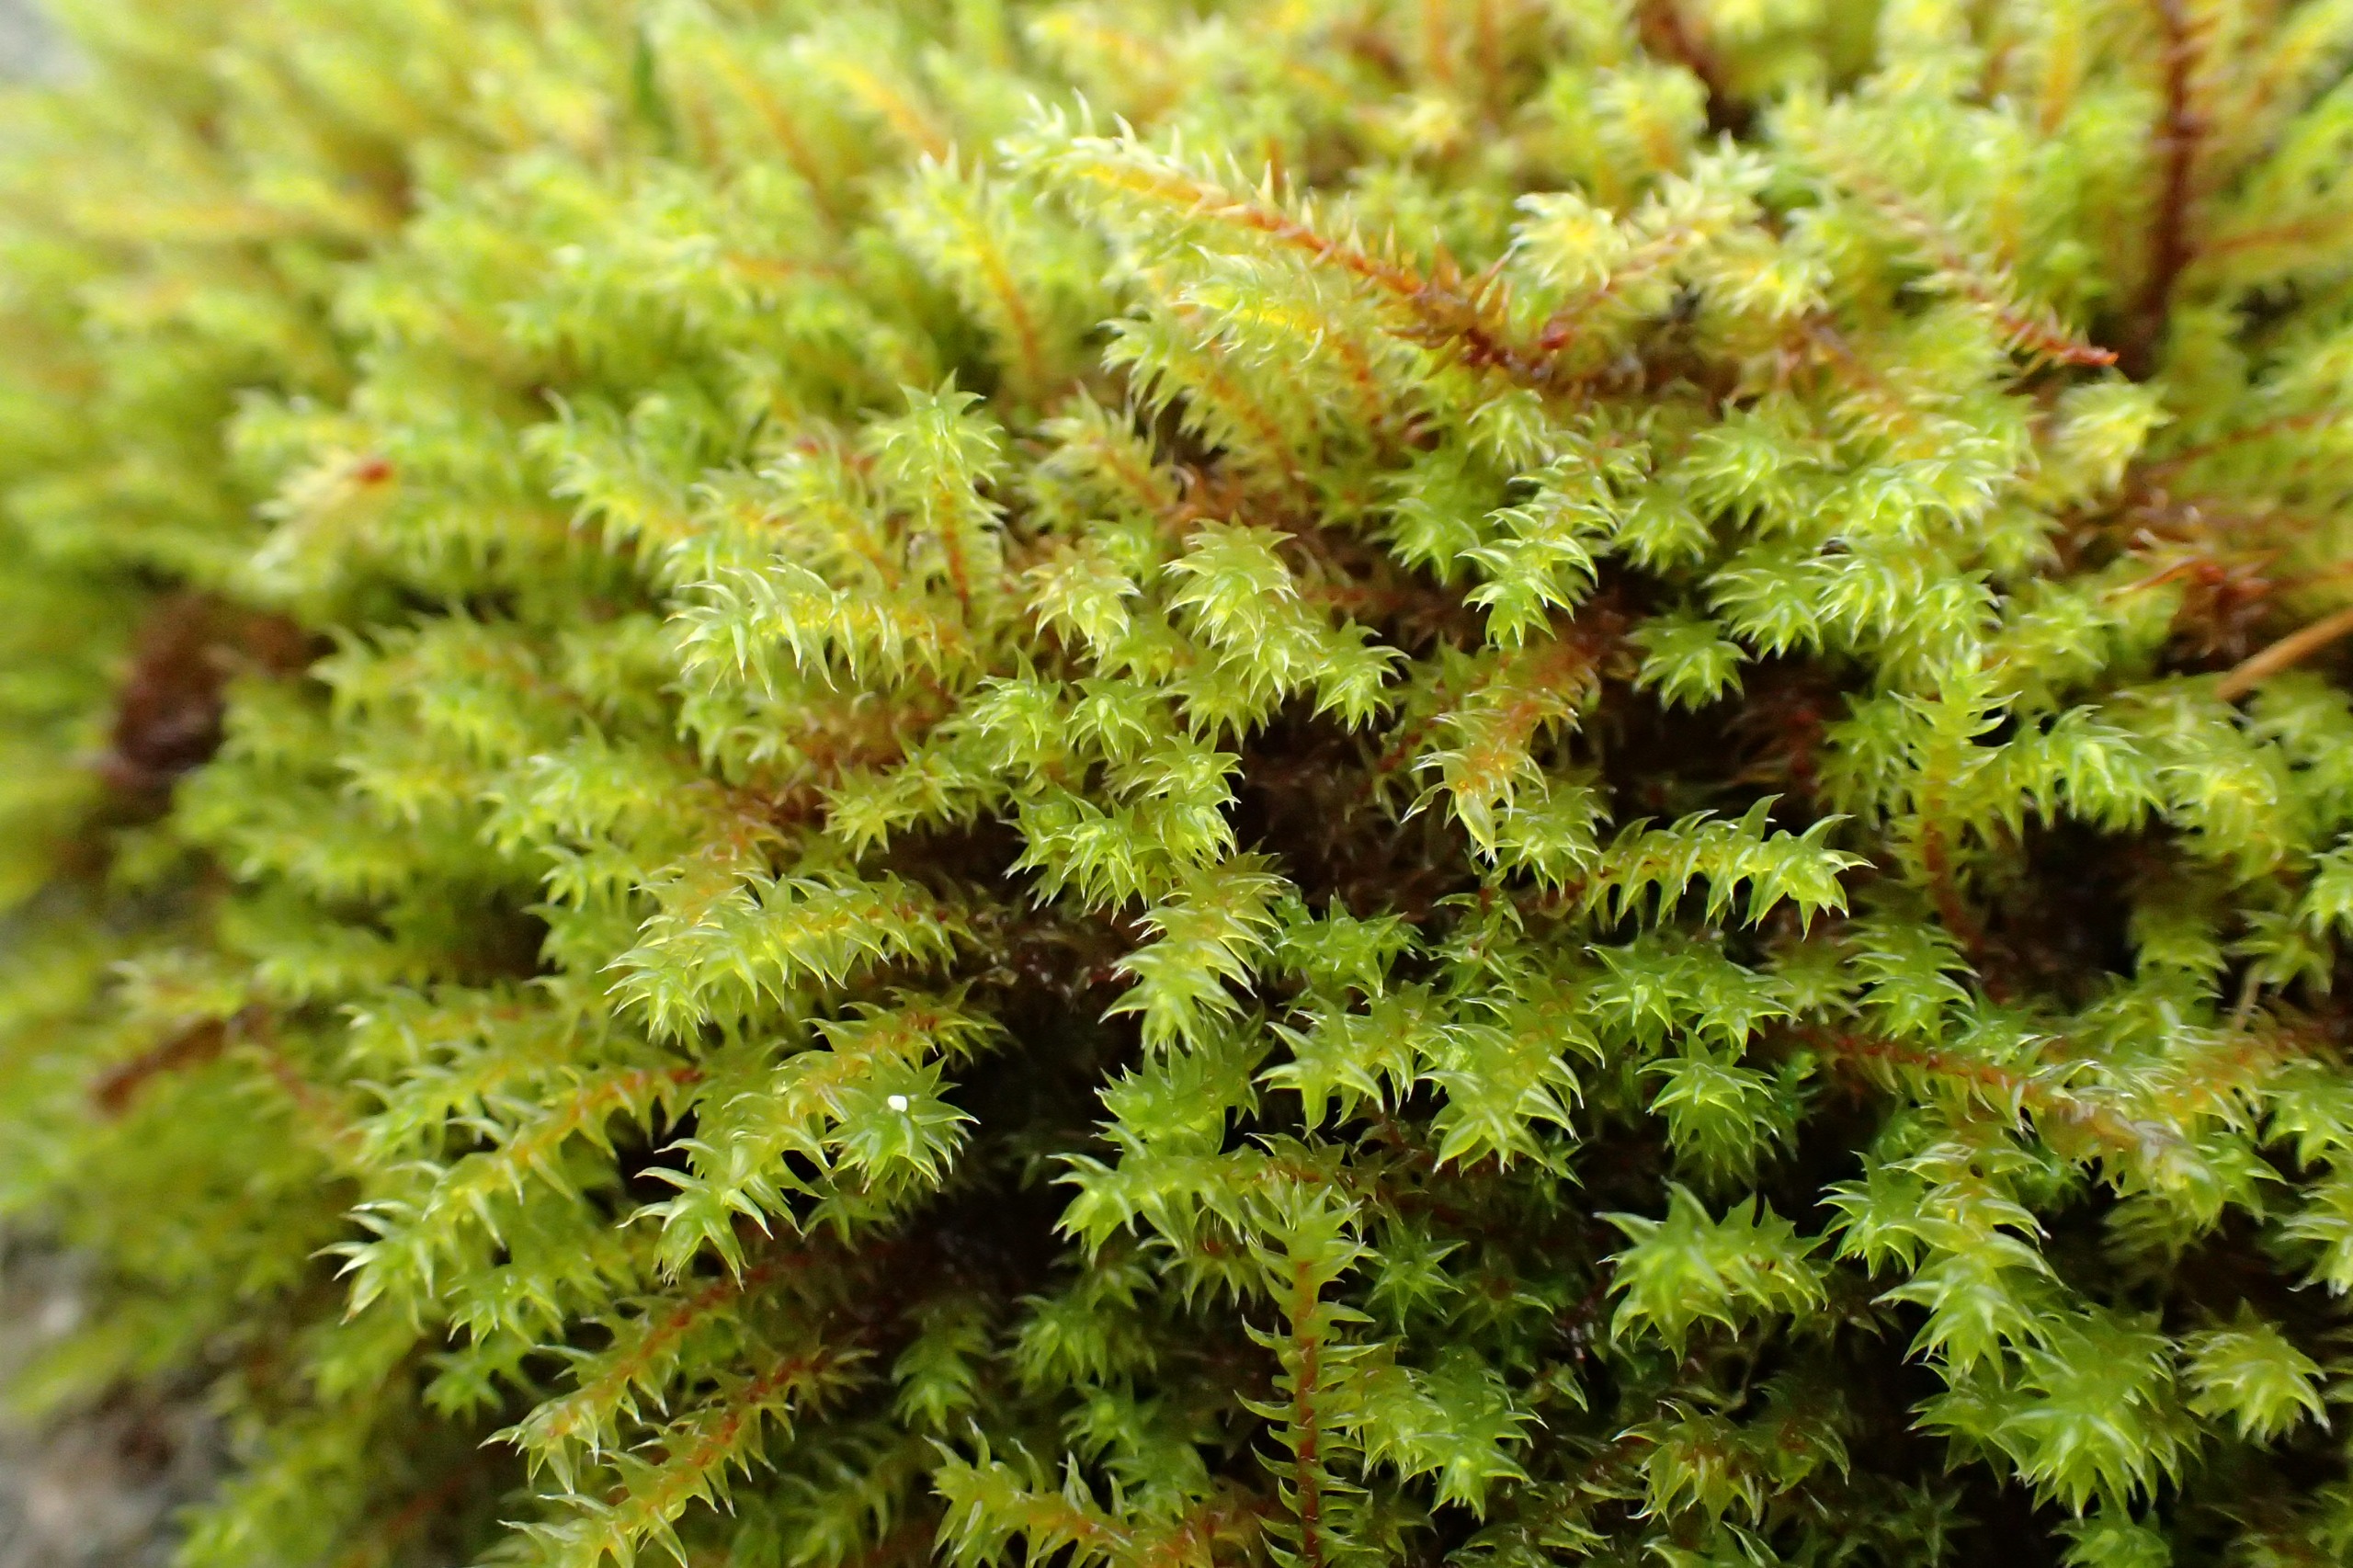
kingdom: Plantae
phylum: Bryophyta
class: Bryopsida
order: Hedwigiales
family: Hedwigiaceae
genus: Hedwigia
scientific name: Hedwigia ciliata
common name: Hvidspidset hedwigia
